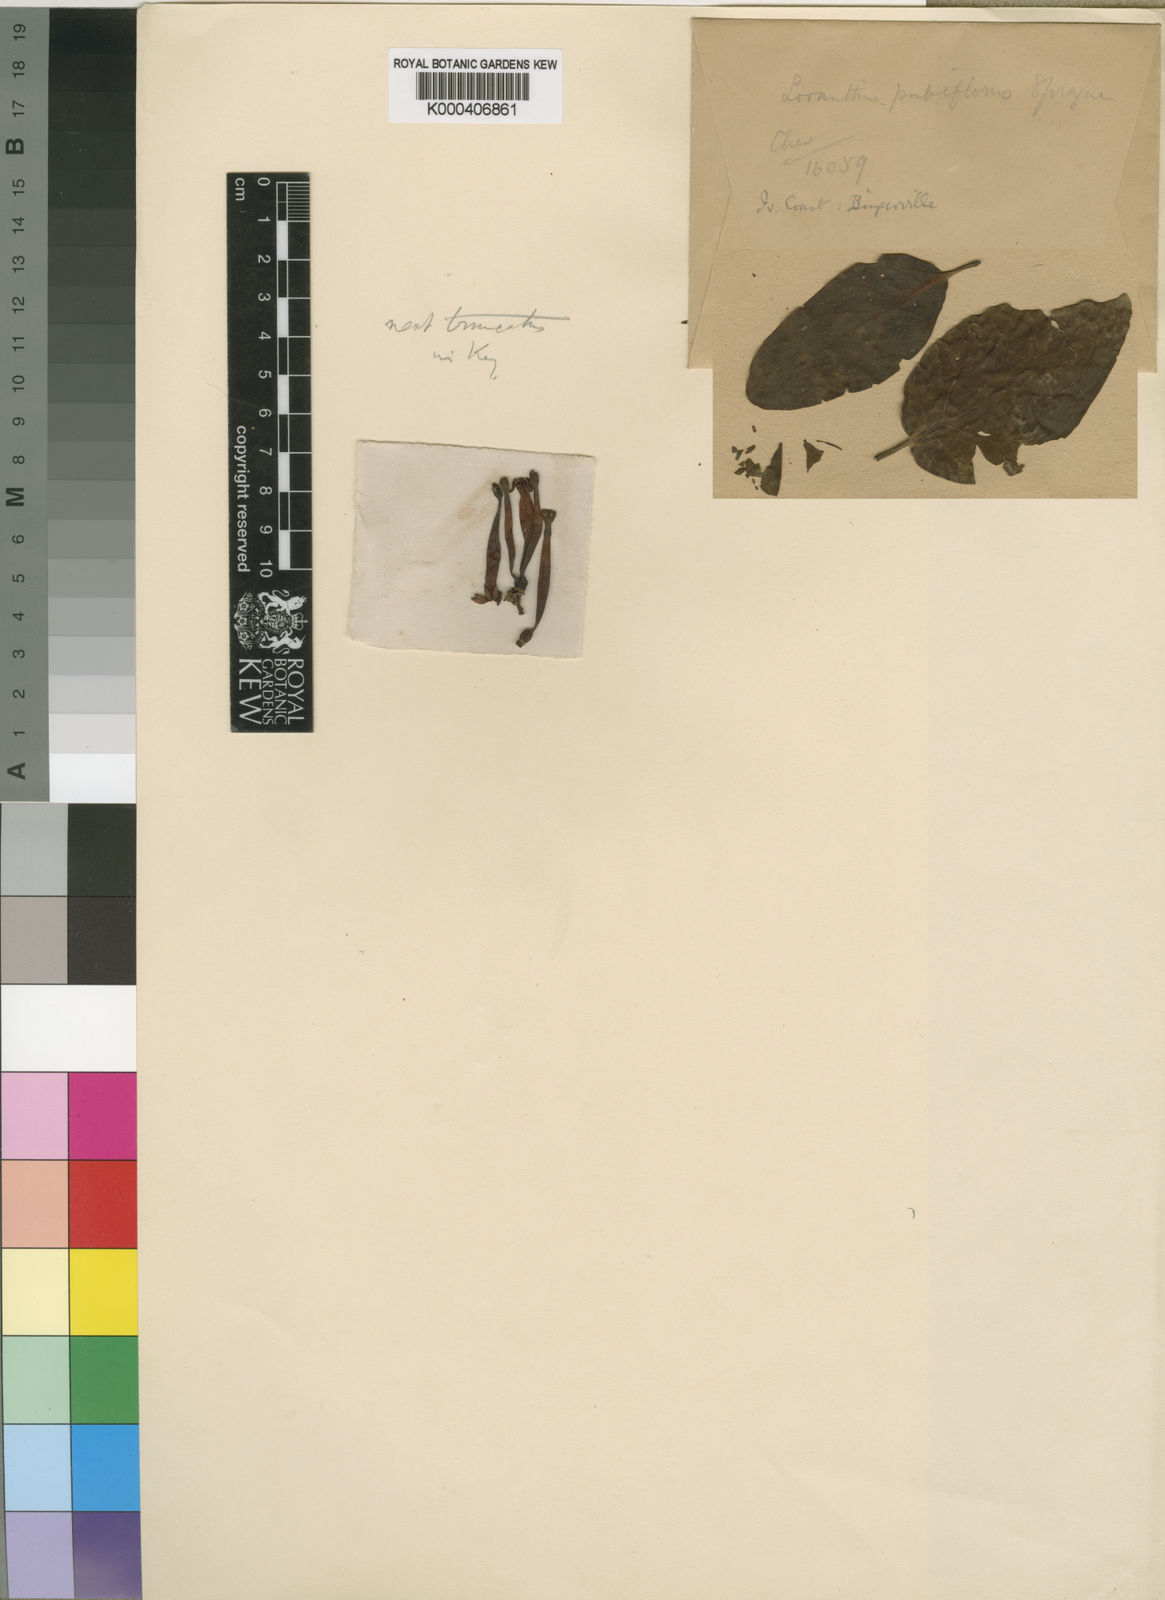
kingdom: Plantae
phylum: Tracheophyta
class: Magnoliopsida
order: Santalales
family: Loranthaceae
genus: Tapinanthus
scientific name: Tapinanthus belvisii
